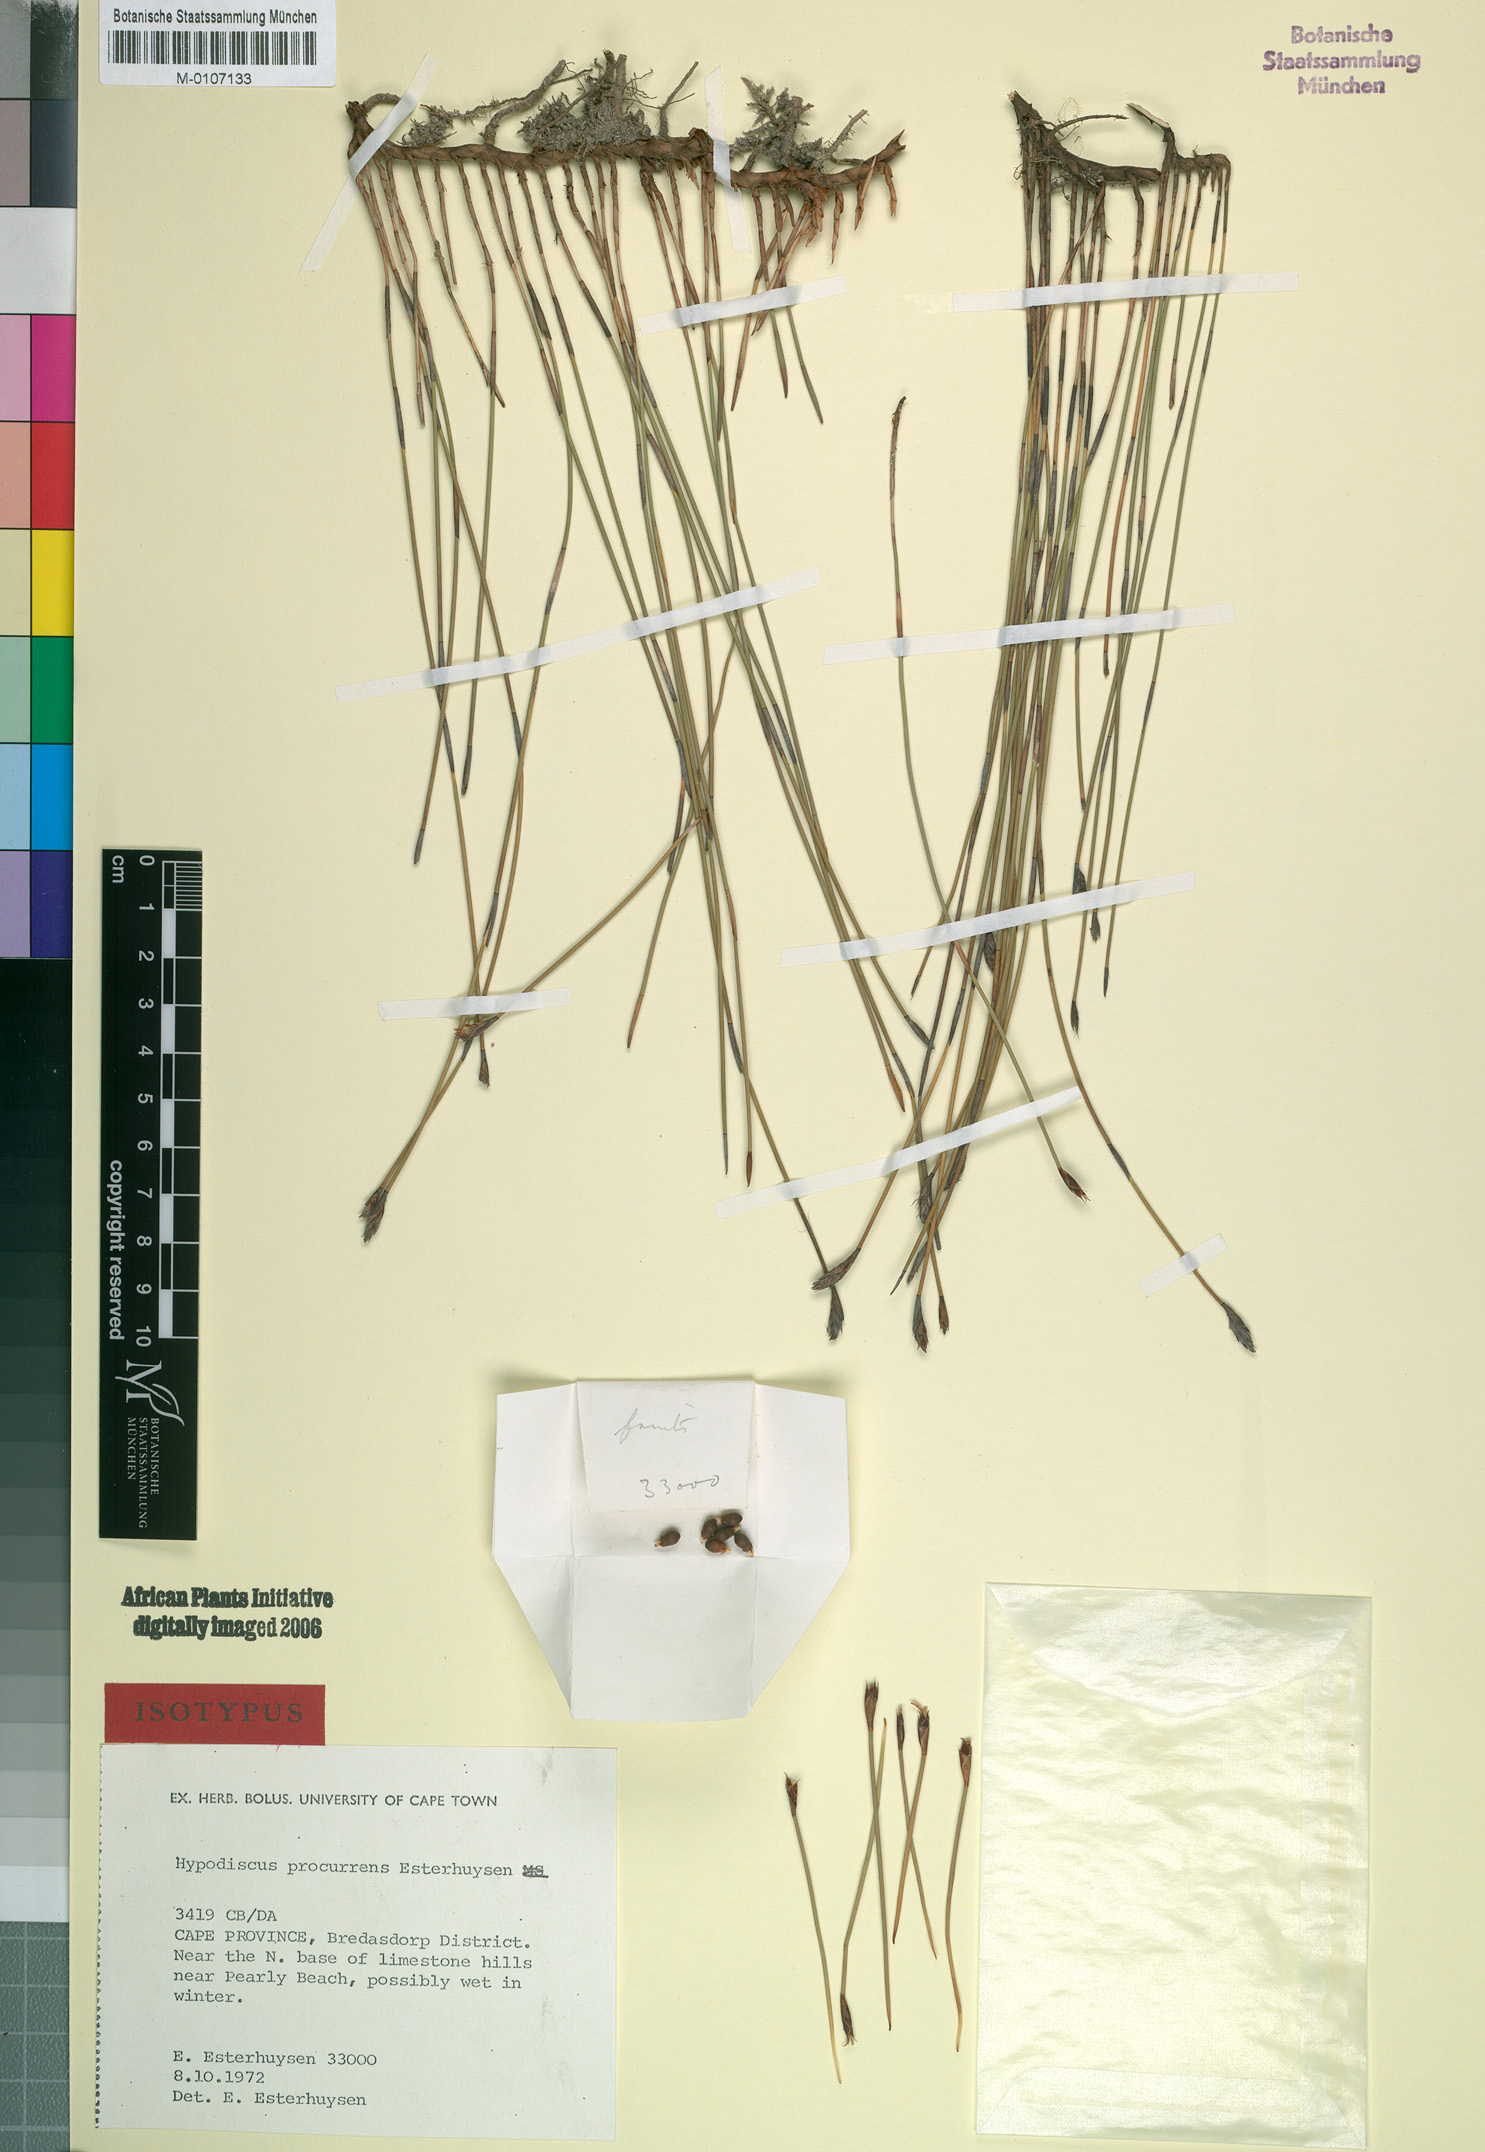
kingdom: Plantae
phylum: Tracheophyta
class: Liliopsida
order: Poales
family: Restionaceae
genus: Hypodiscus
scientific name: Hypodiscus procurrens
